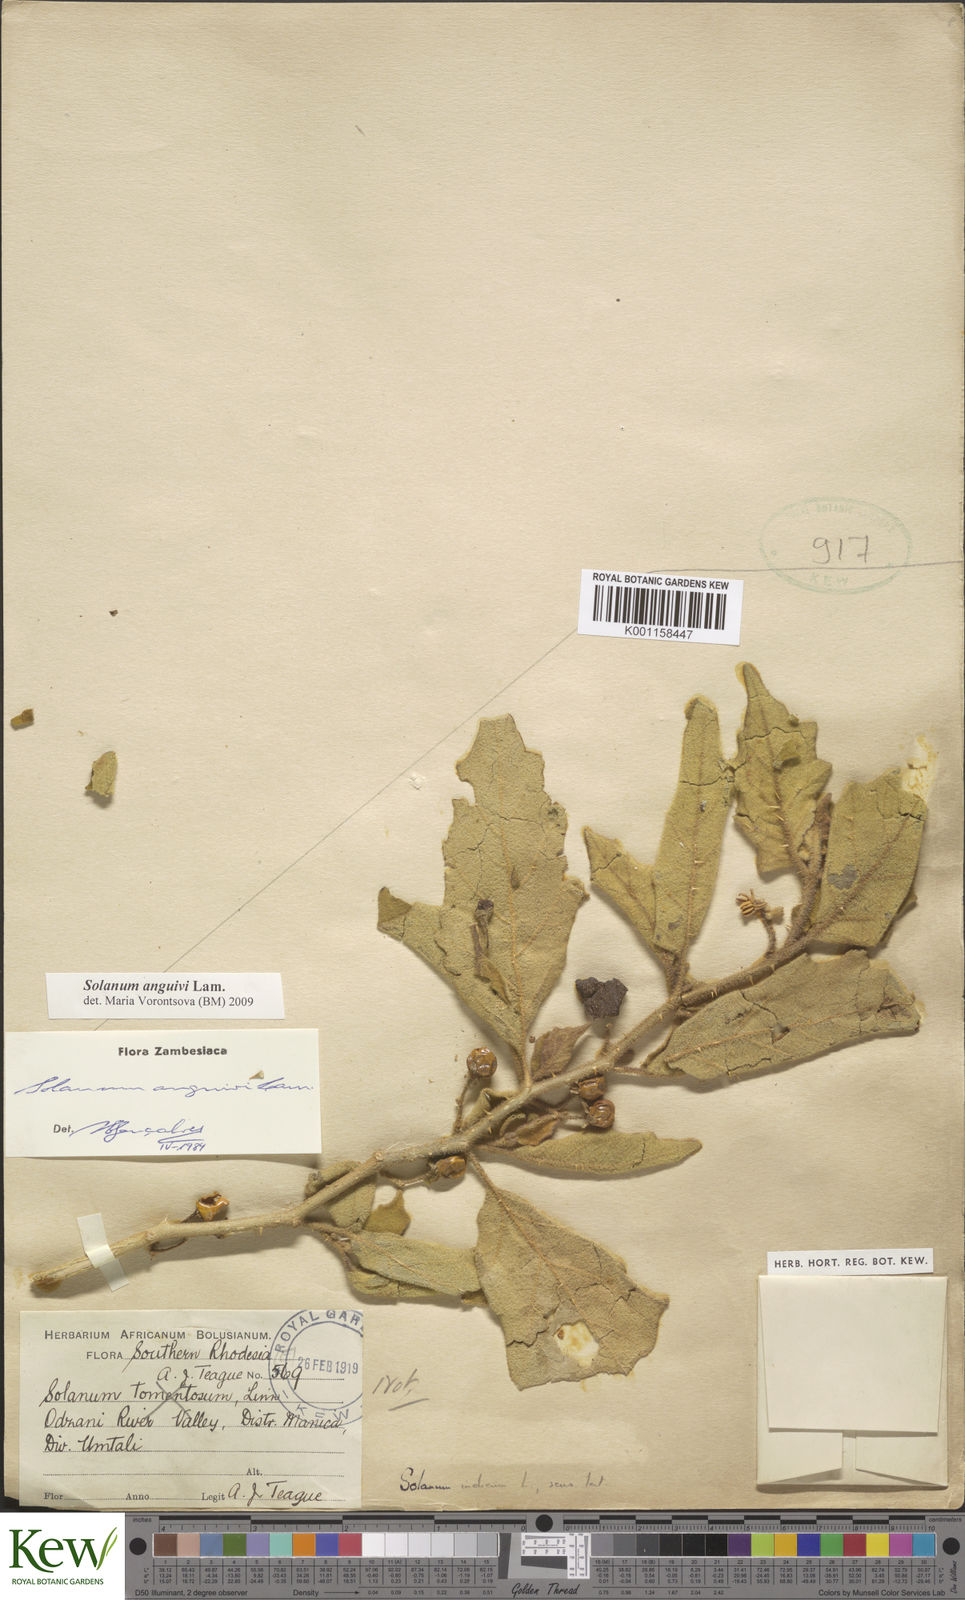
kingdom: Plantae
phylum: Tracheophyta
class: Magnoliopsida
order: Solanales
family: Solanaceae
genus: Solanum
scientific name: Solanum anguivi
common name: Forest bitterberry
